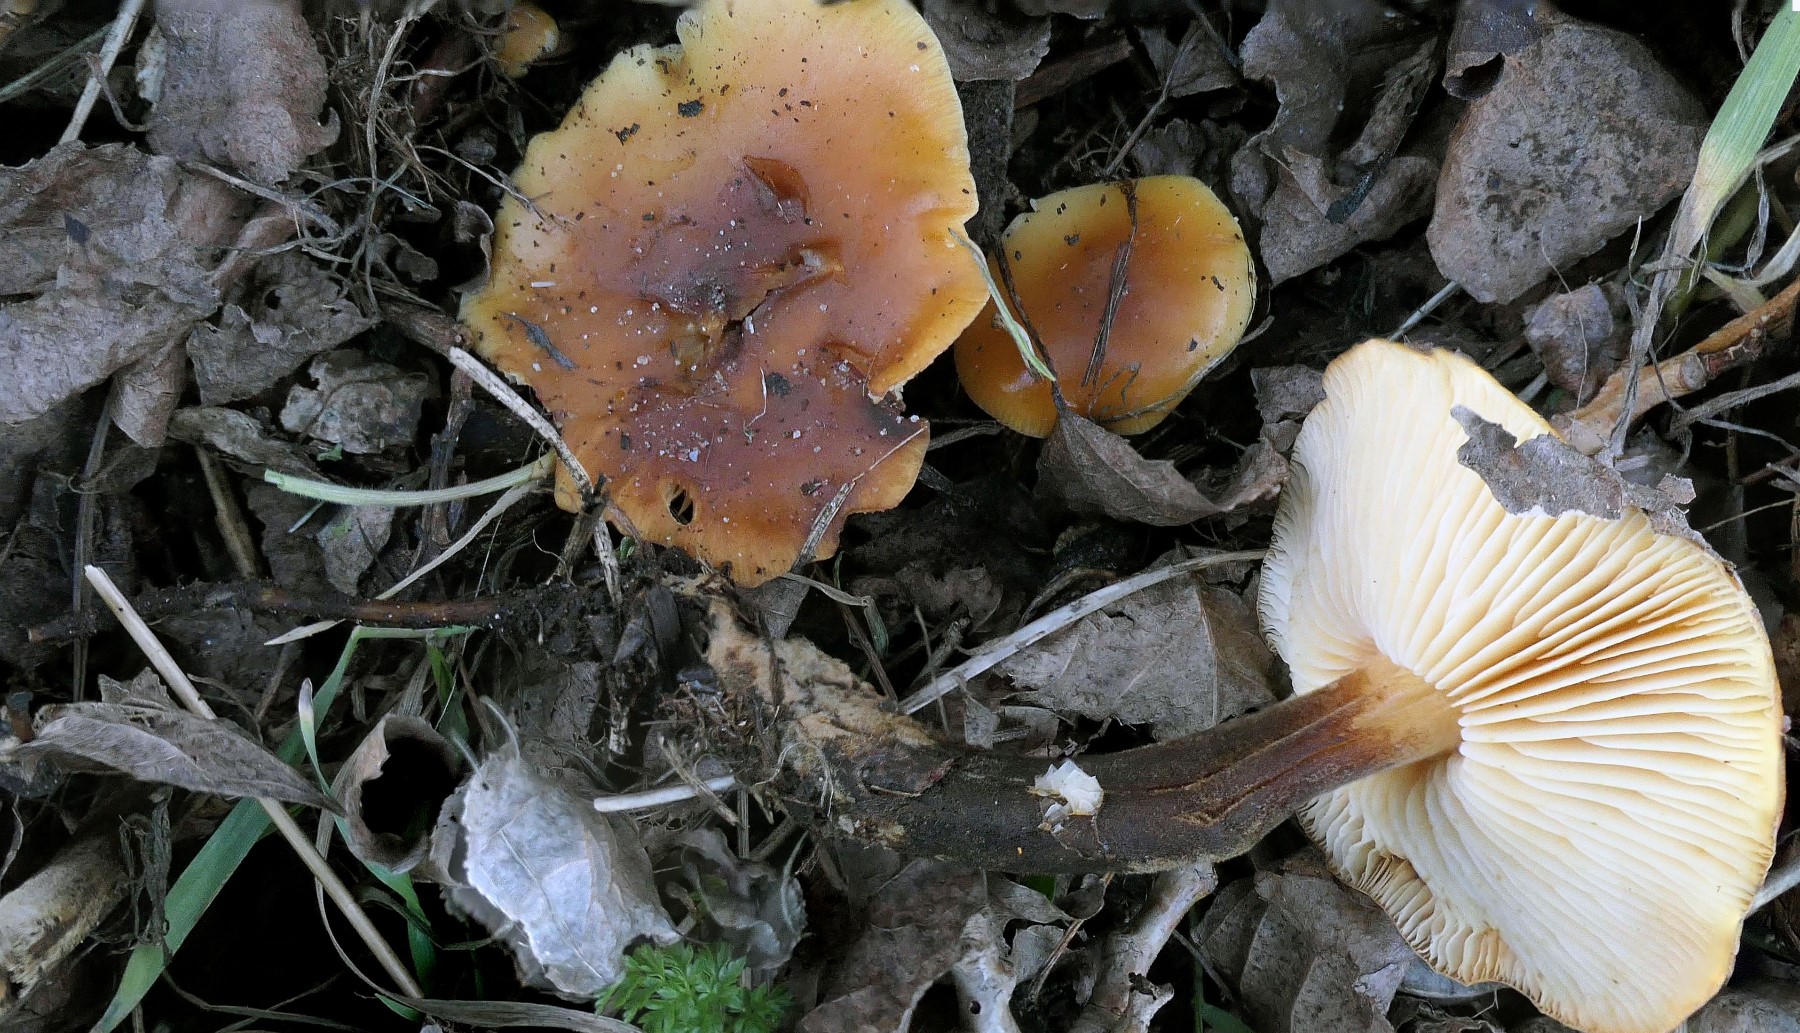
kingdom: Fungi
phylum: Basidiomycota
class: Agaricomycetes
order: Agaricales
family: Physalacriaceae
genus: Flammulina
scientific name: Flammulina populicola
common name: poppel-fløjlsfod
